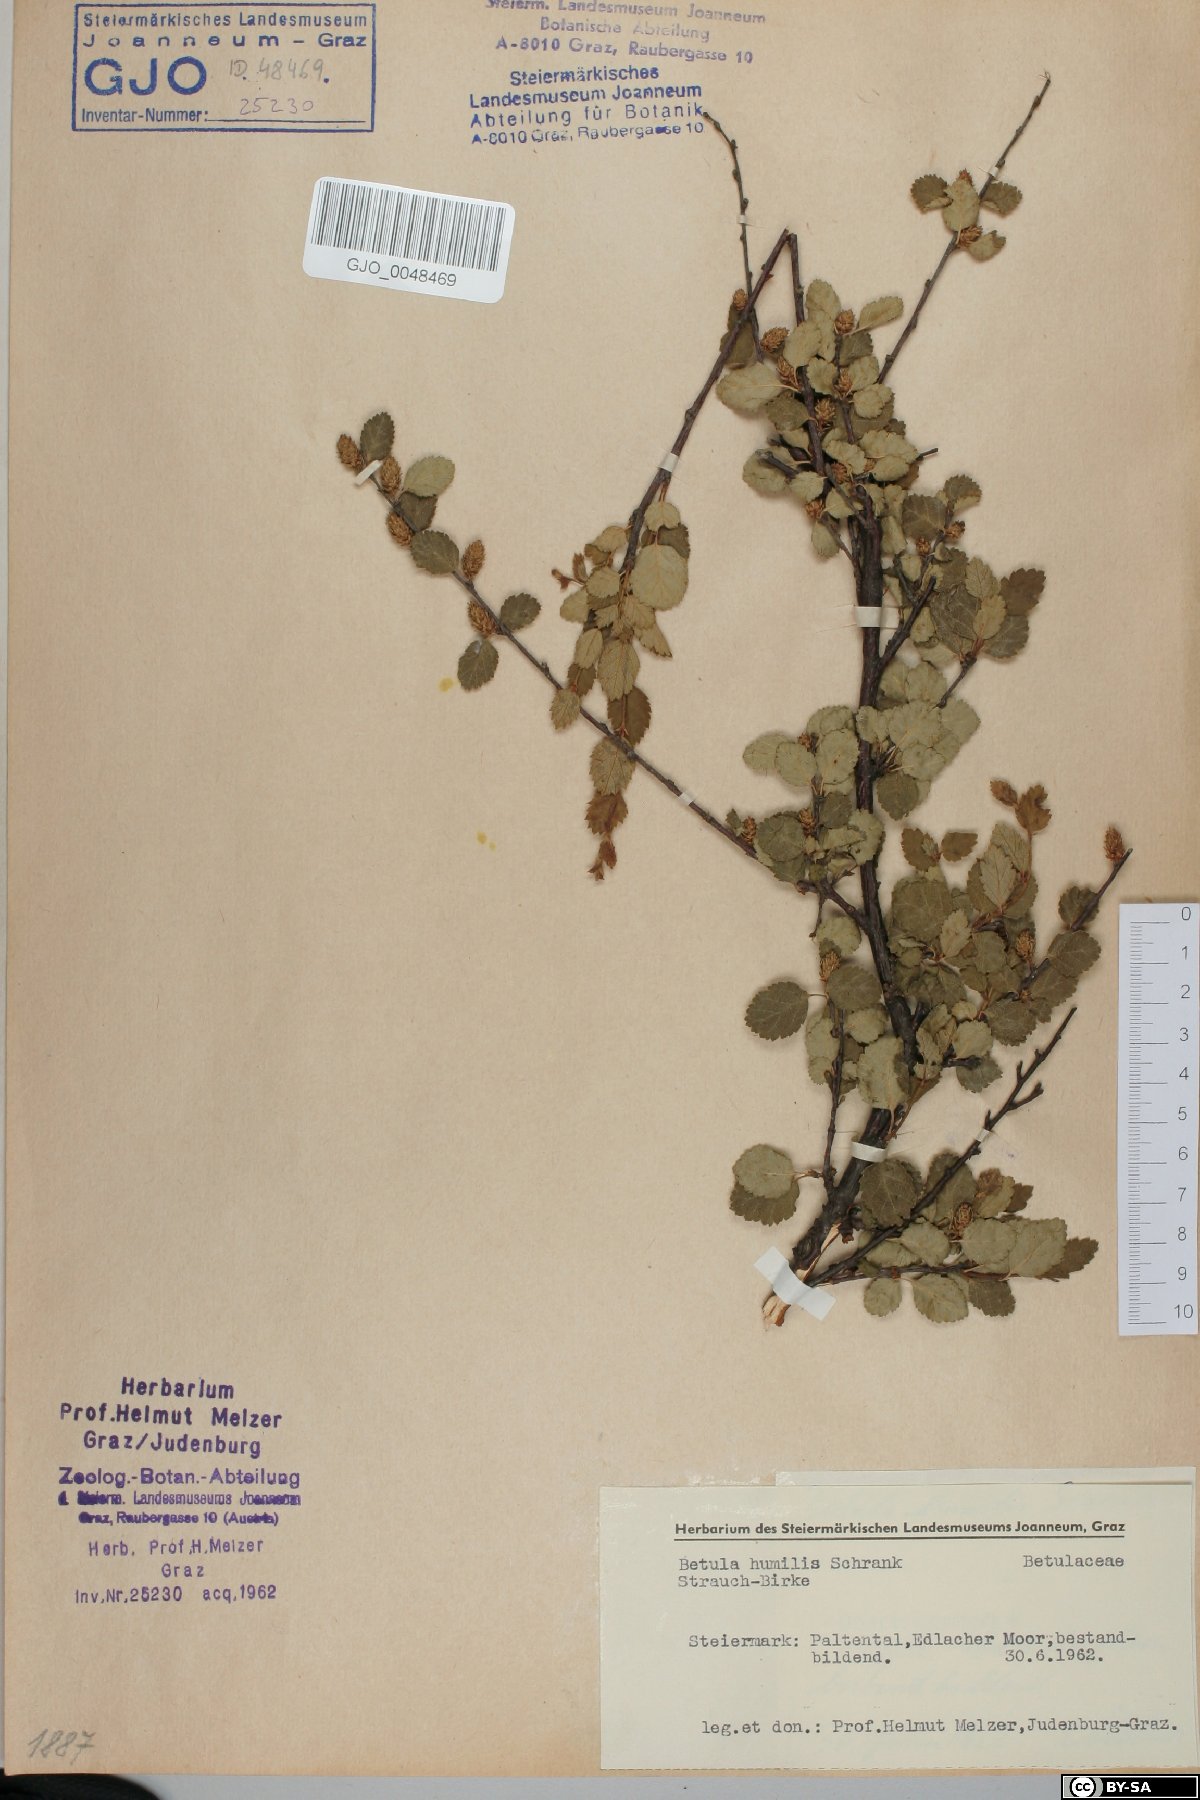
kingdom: Plantae
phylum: Tracheophyta
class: Magnoliopsida
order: Fagales
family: Betulaceae
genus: Betula
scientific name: Betula humilis
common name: Shrubby birch
